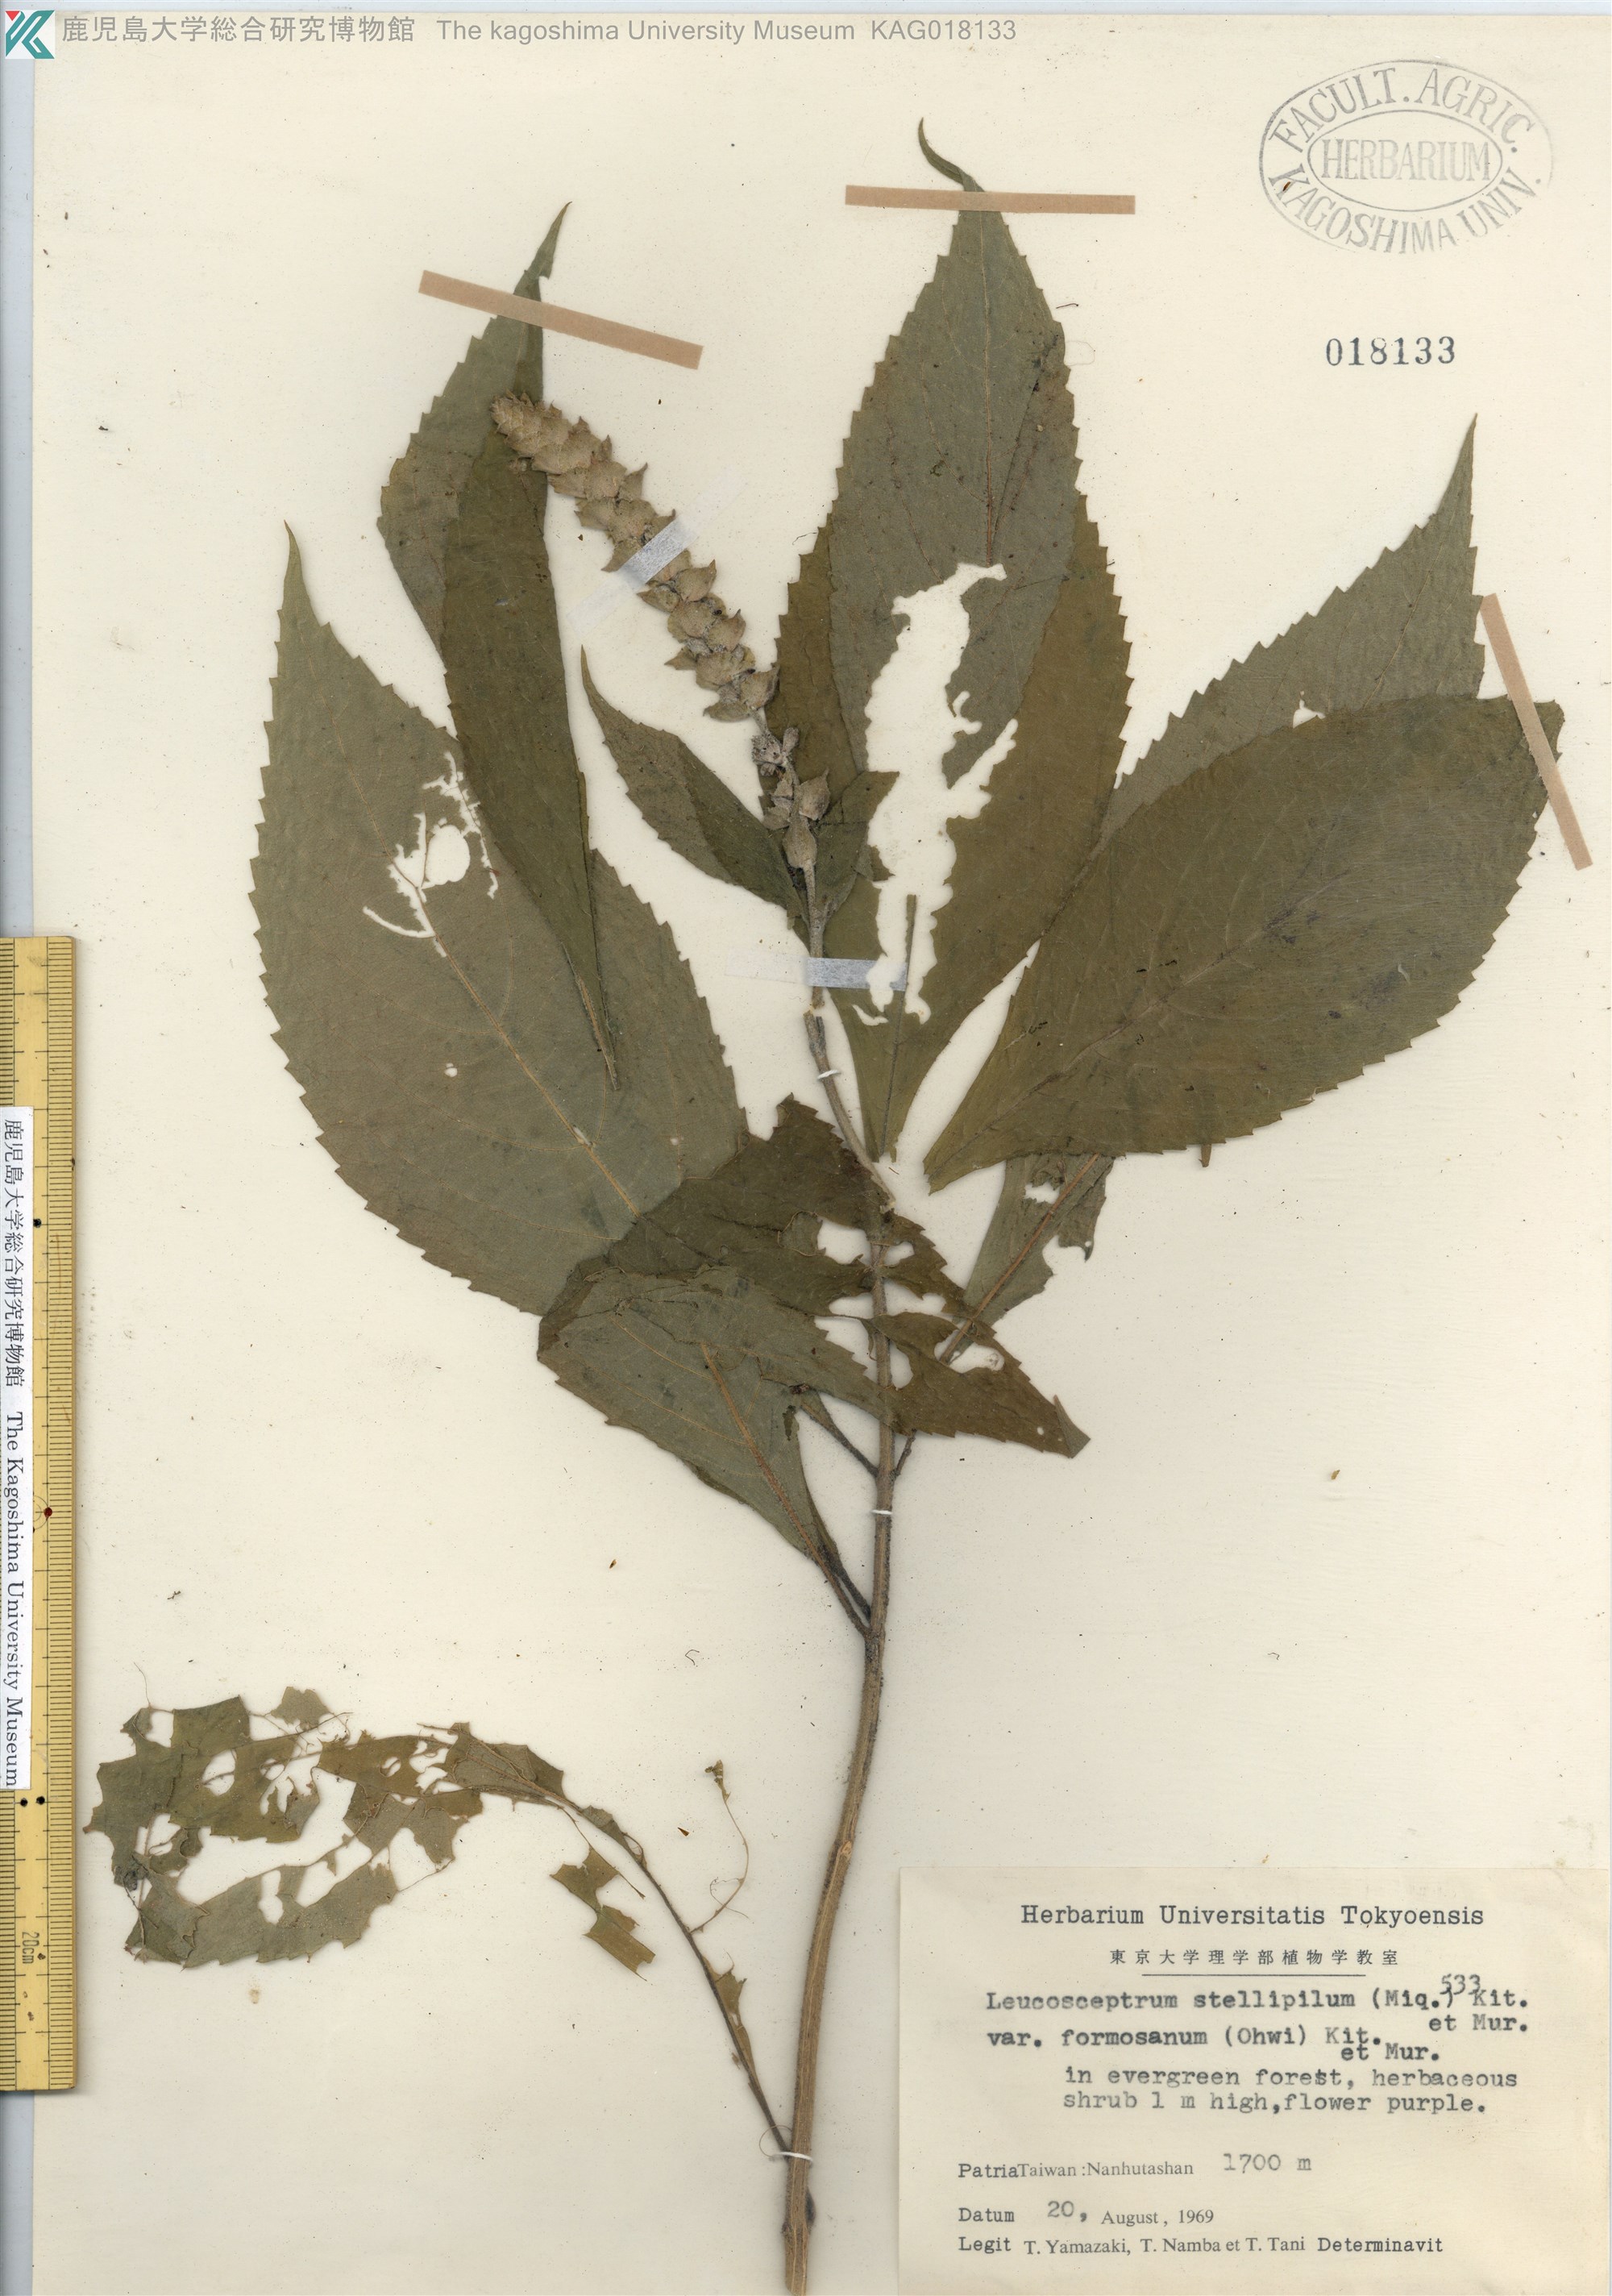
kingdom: Plantae
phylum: Tracheophyta
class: Magnoliopsida
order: Lamiales
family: Lamiaceae
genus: Comanthosphace
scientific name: Comanthosphace formosana
